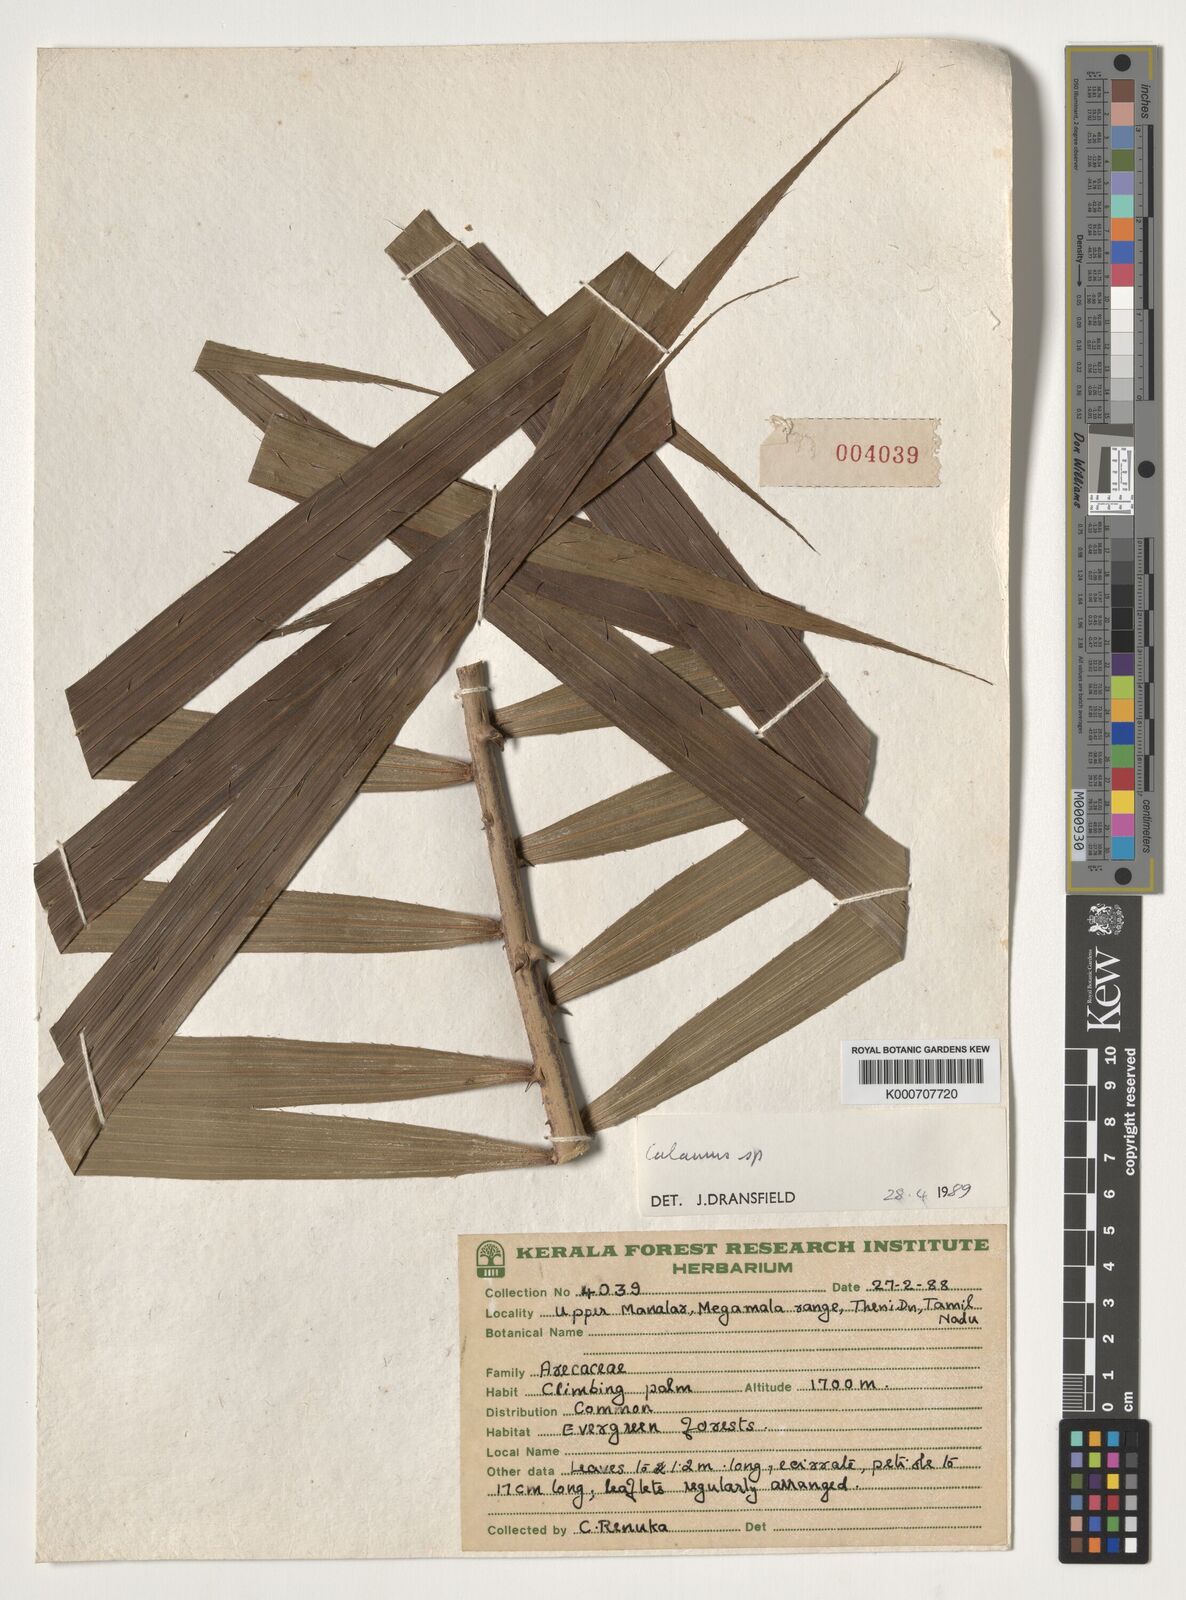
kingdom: Plantae
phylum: Tracheophyta
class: Liliopsida
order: Arecales
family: Arecaceae
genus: Calamus
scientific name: Calamus
